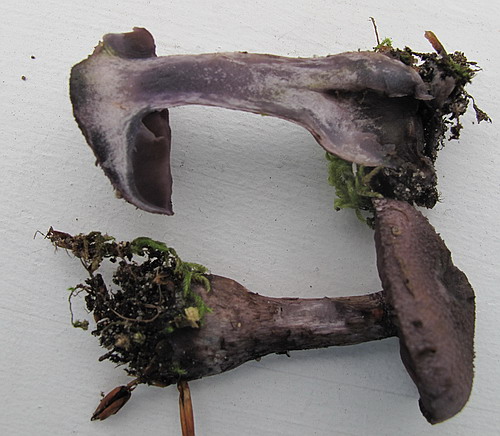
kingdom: Fungi
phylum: Basidiomycota
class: Agaricomycetes
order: Agaricales
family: Cortinariaceae
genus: Cortinarius
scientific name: Cortinarius violaceus
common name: mørkviolet slørhat
